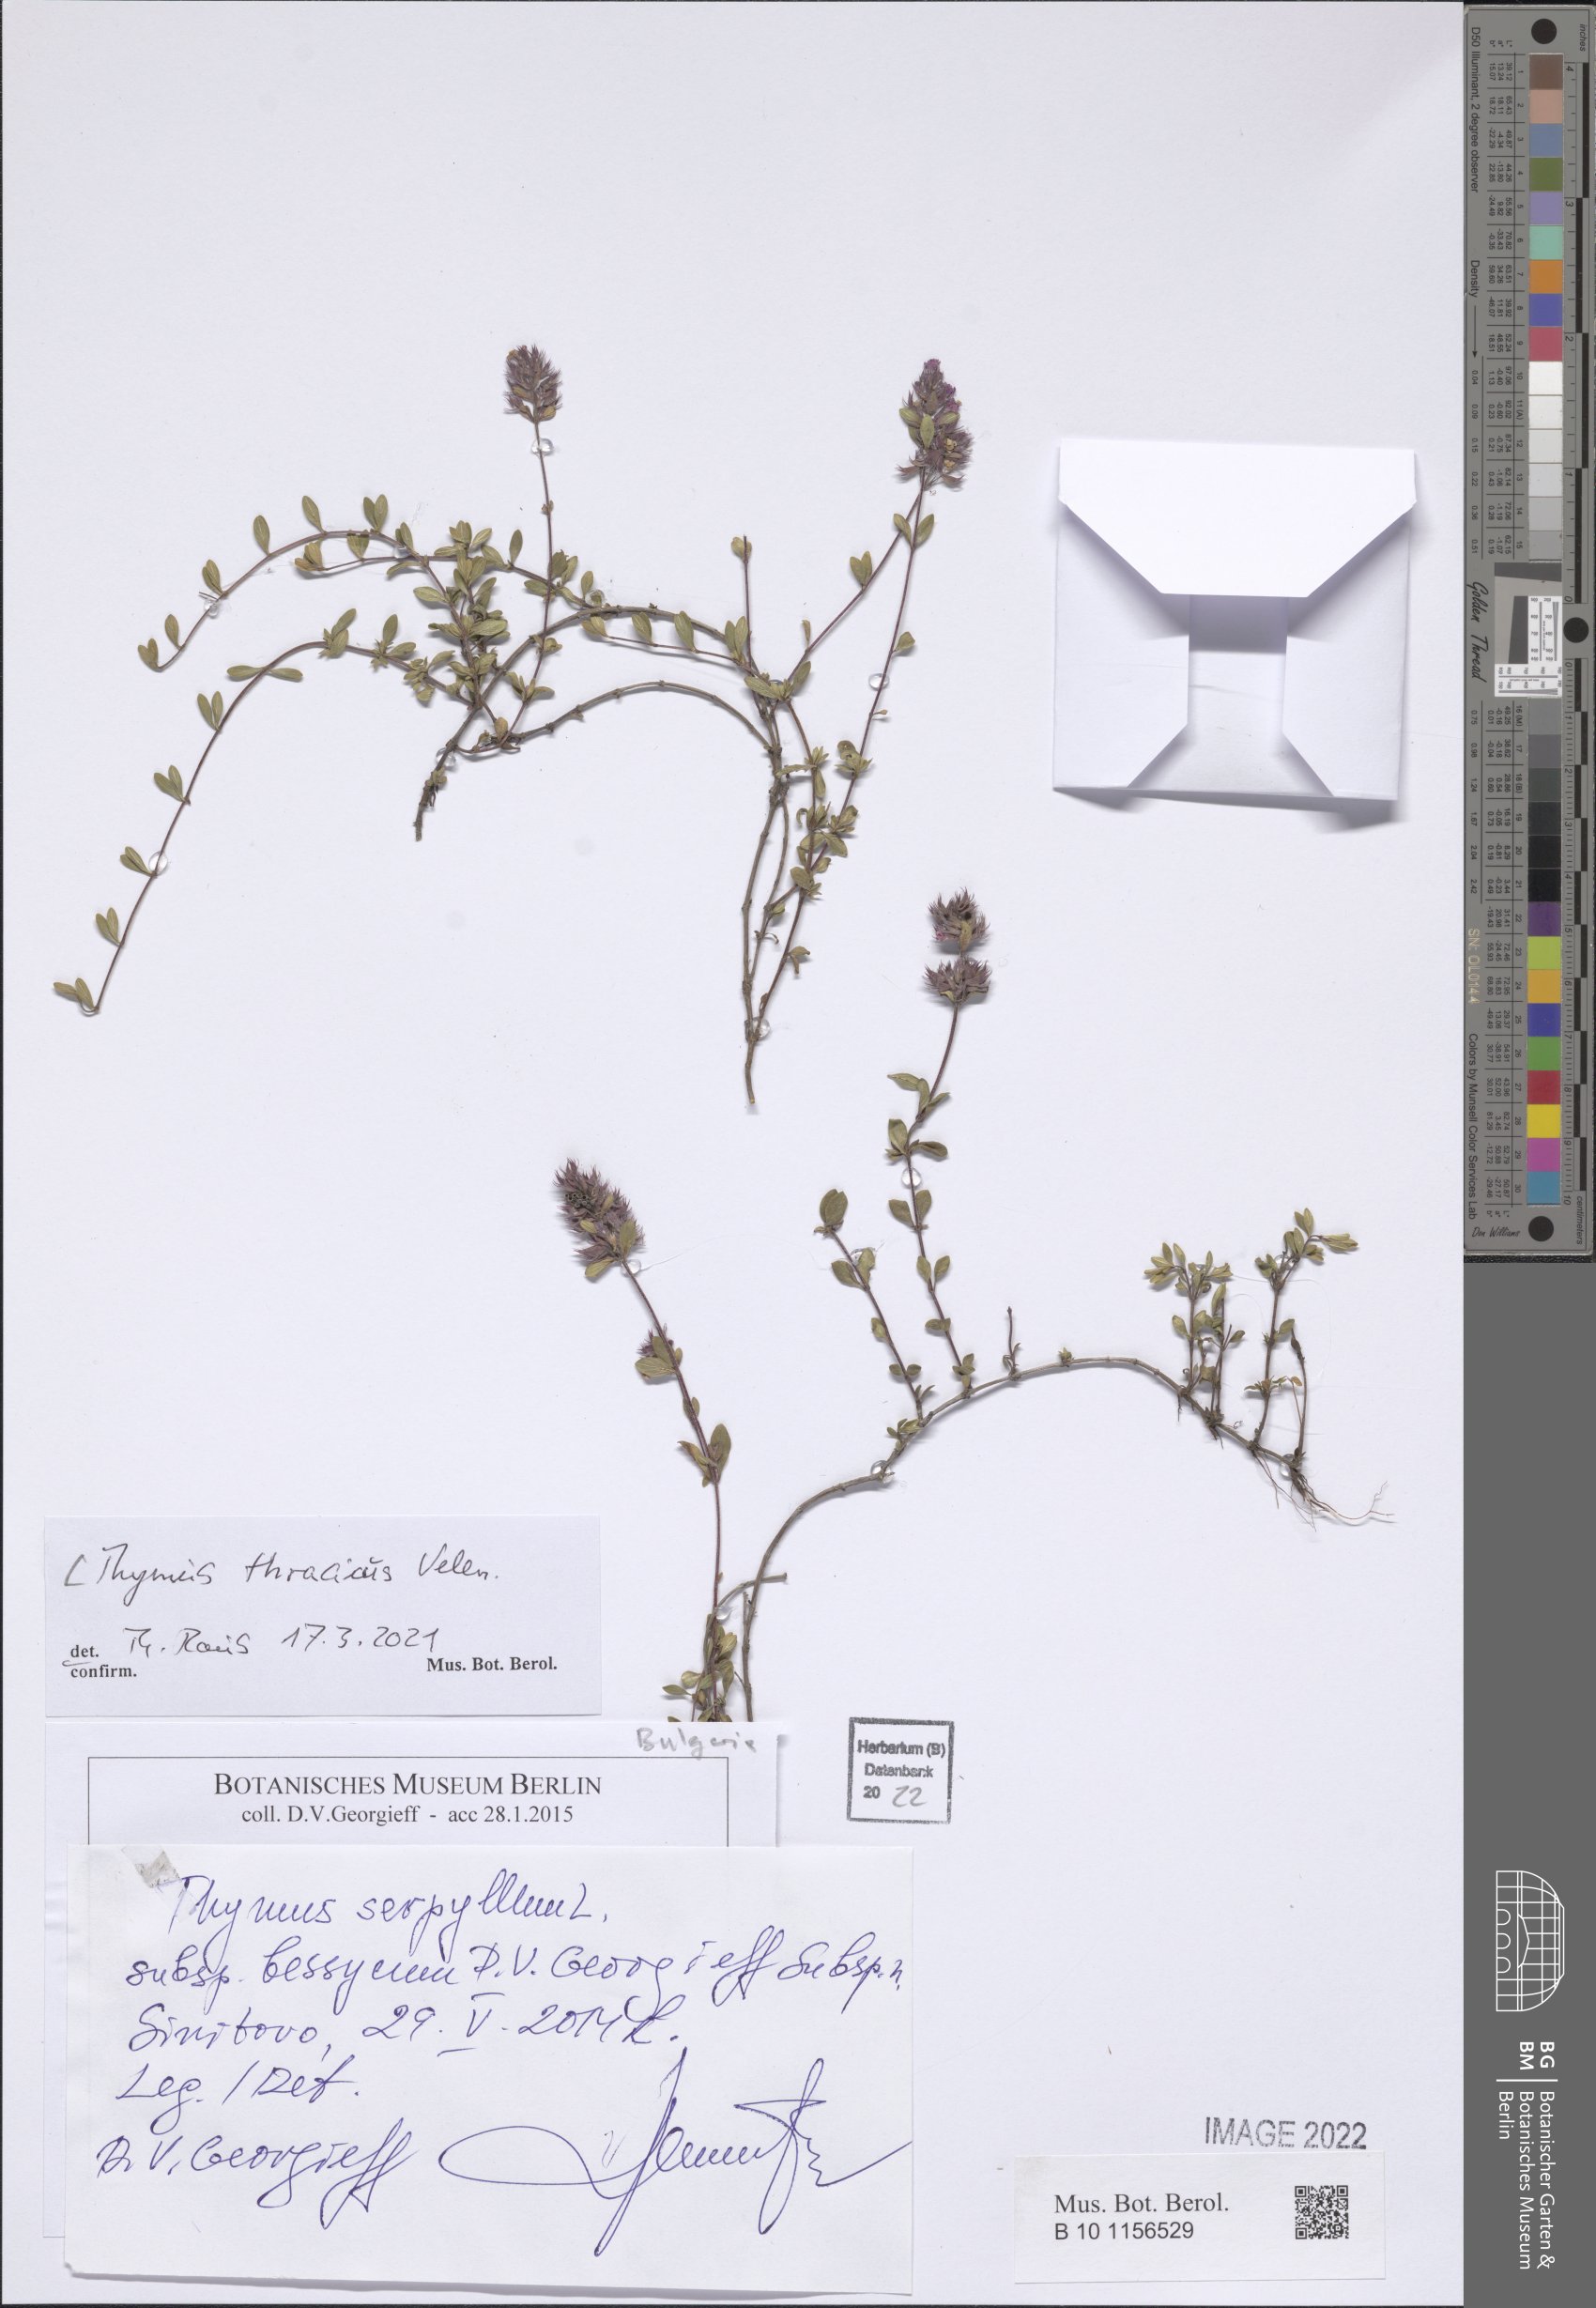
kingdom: Plantae
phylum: Tracheophyta
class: Magnoliopsida
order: Lamiales
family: Lamiaceae
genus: Thymus
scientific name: Thymus thracicus
